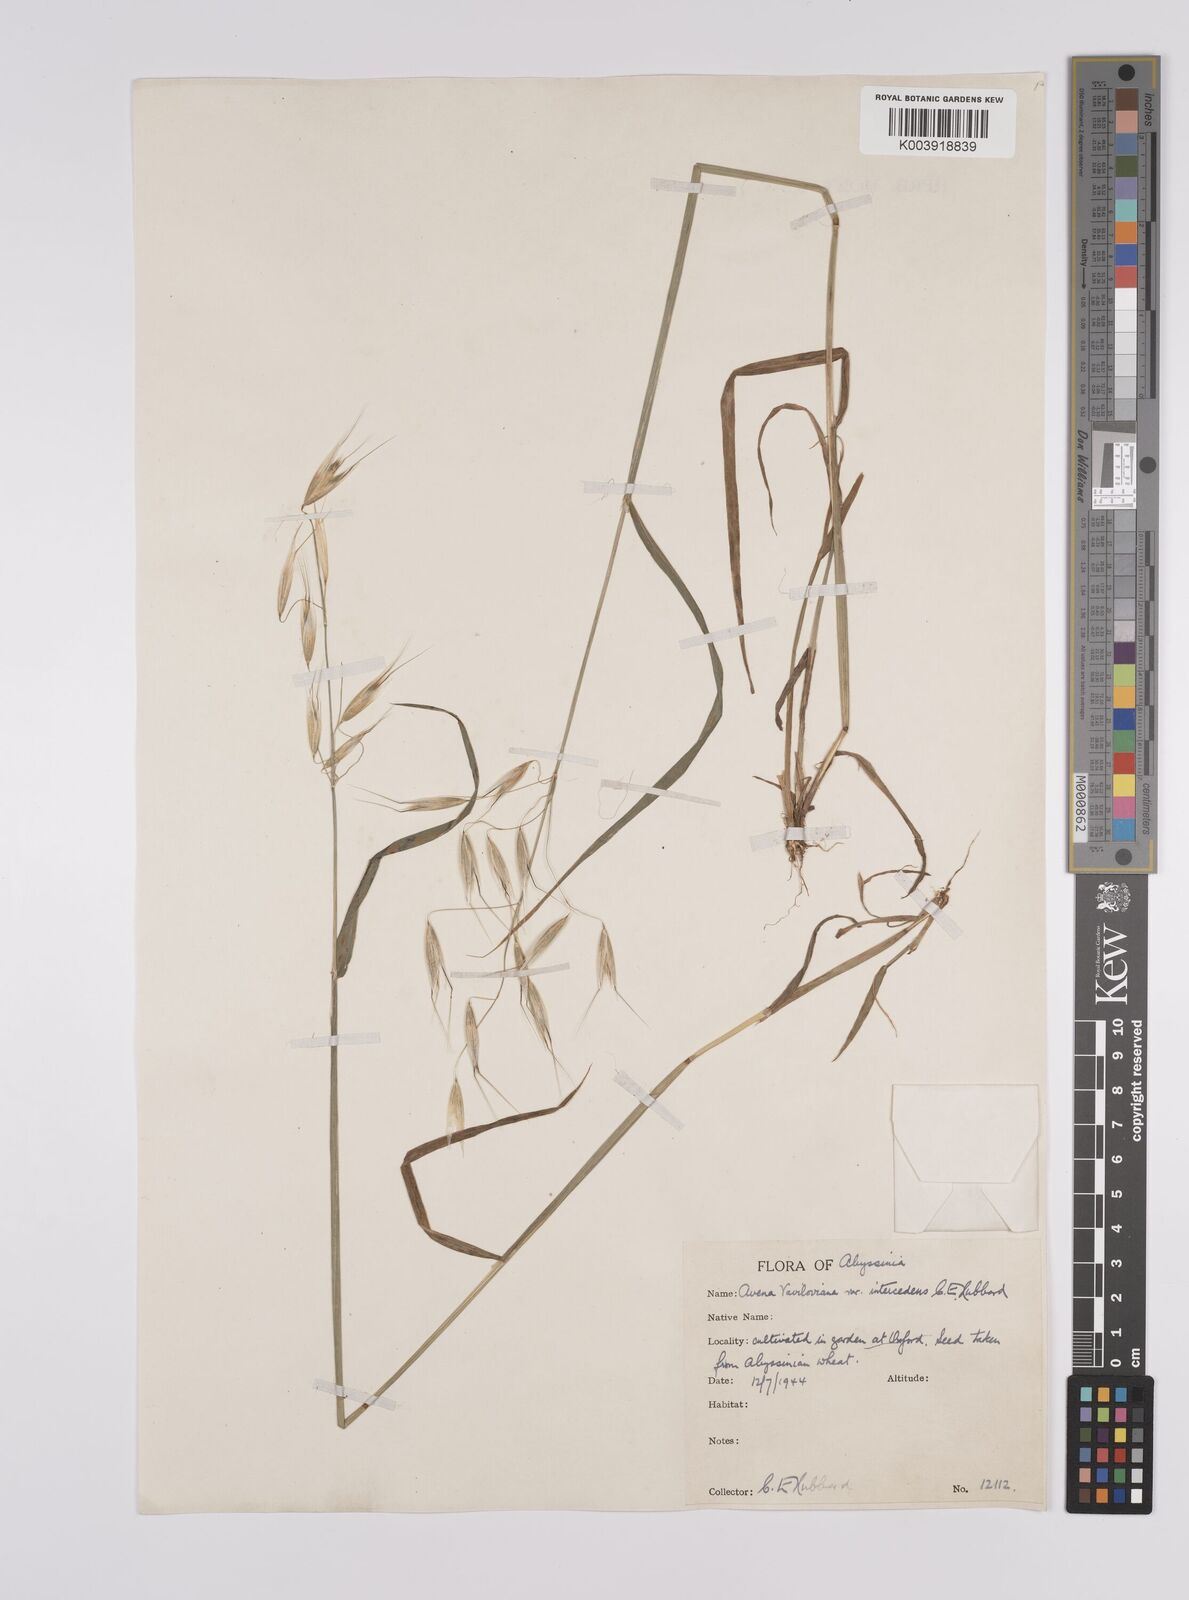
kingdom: Plantae
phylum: Tracheophyta
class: Liliopsida
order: Poales
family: Poaceae
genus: Avena
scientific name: Avena abyssinica
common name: Ethiopian oat
